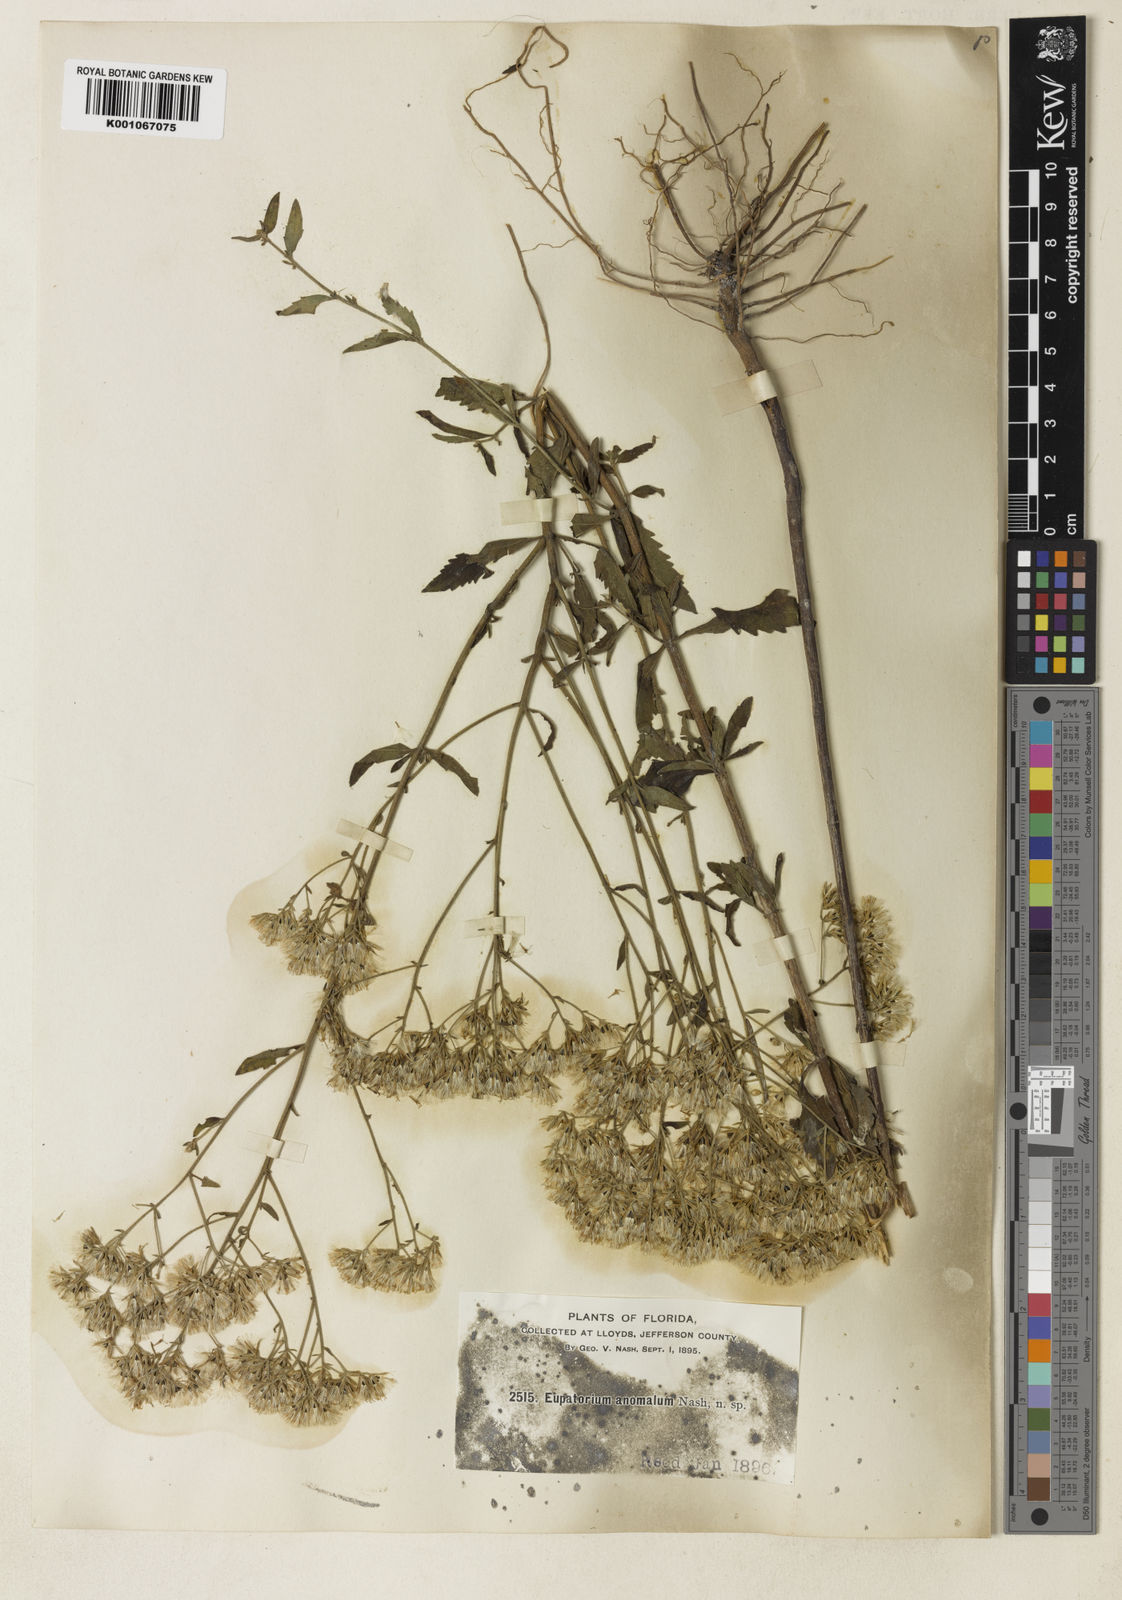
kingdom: Plantae
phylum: Tracheophyta
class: Magnoliopsida
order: Asterales
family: Asteraceae
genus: Eupatorium
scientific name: Eupatorium
